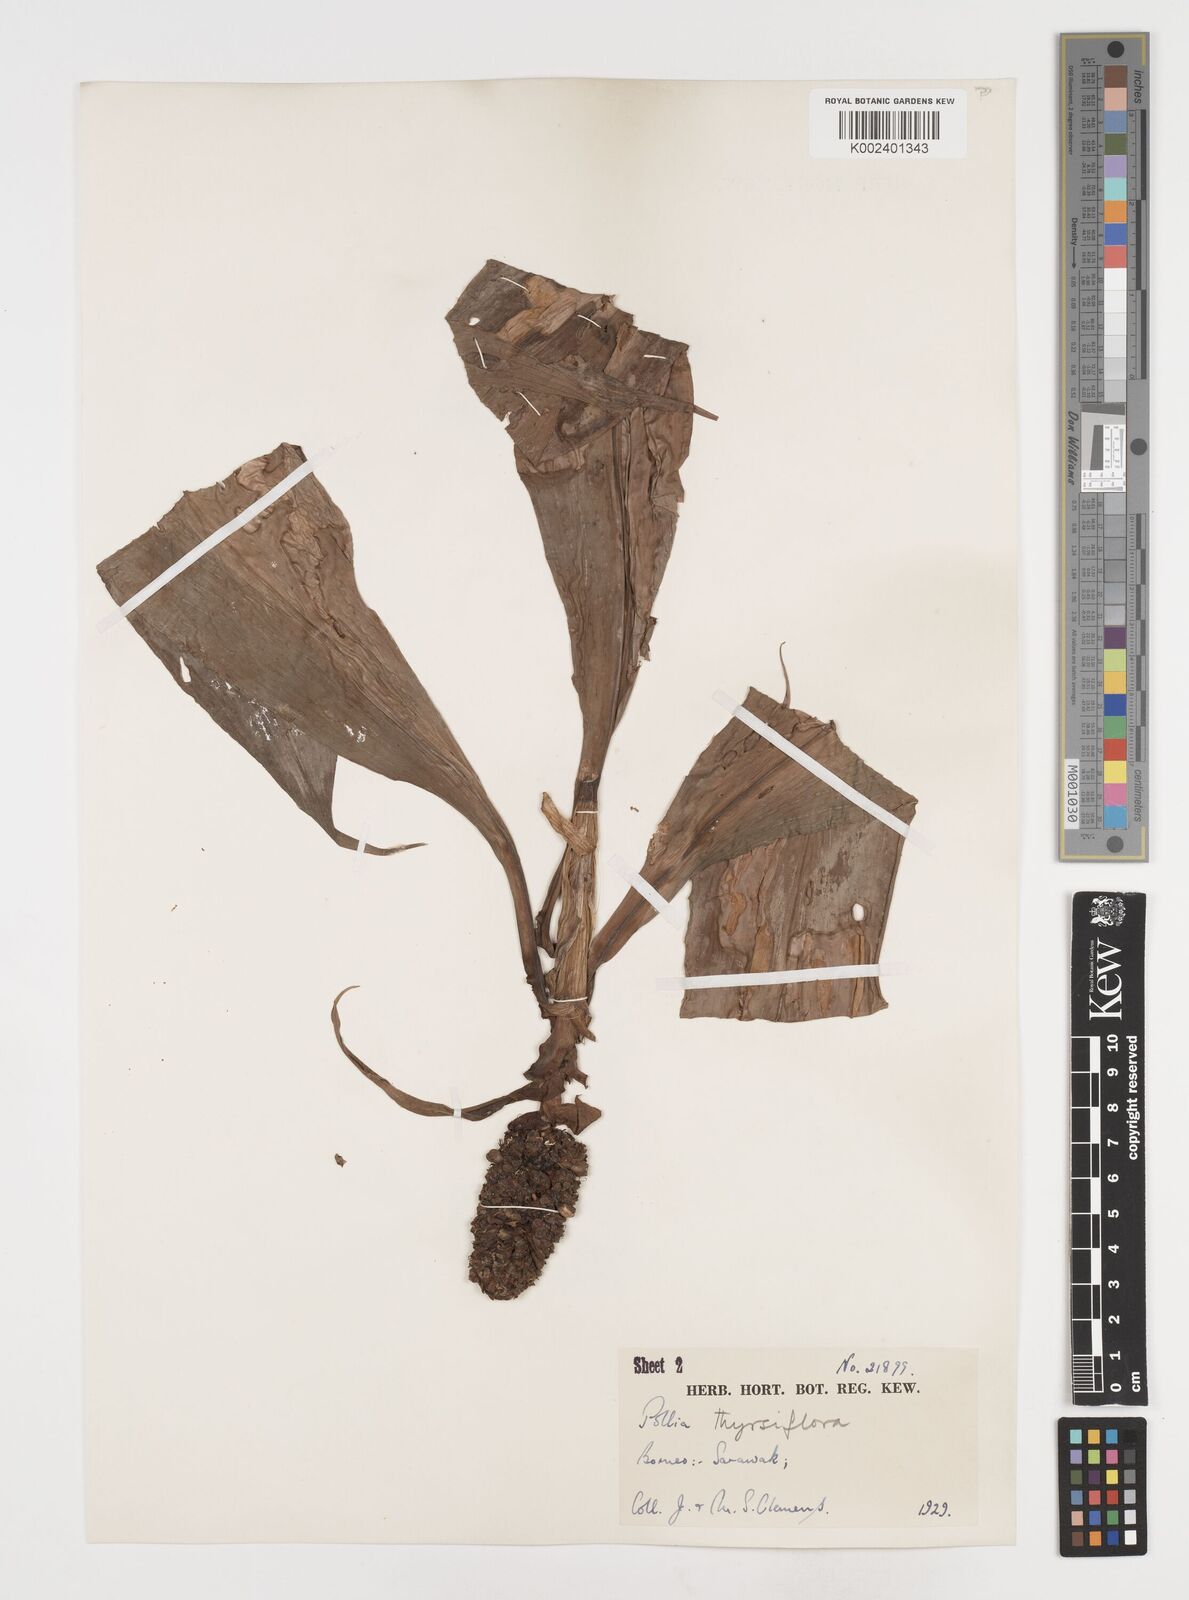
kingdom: Plantae
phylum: Tracheophyta
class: Liliopsida
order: Commelinales
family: Commelinaceae
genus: Pollia
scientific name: Pollia thyrsiflora
